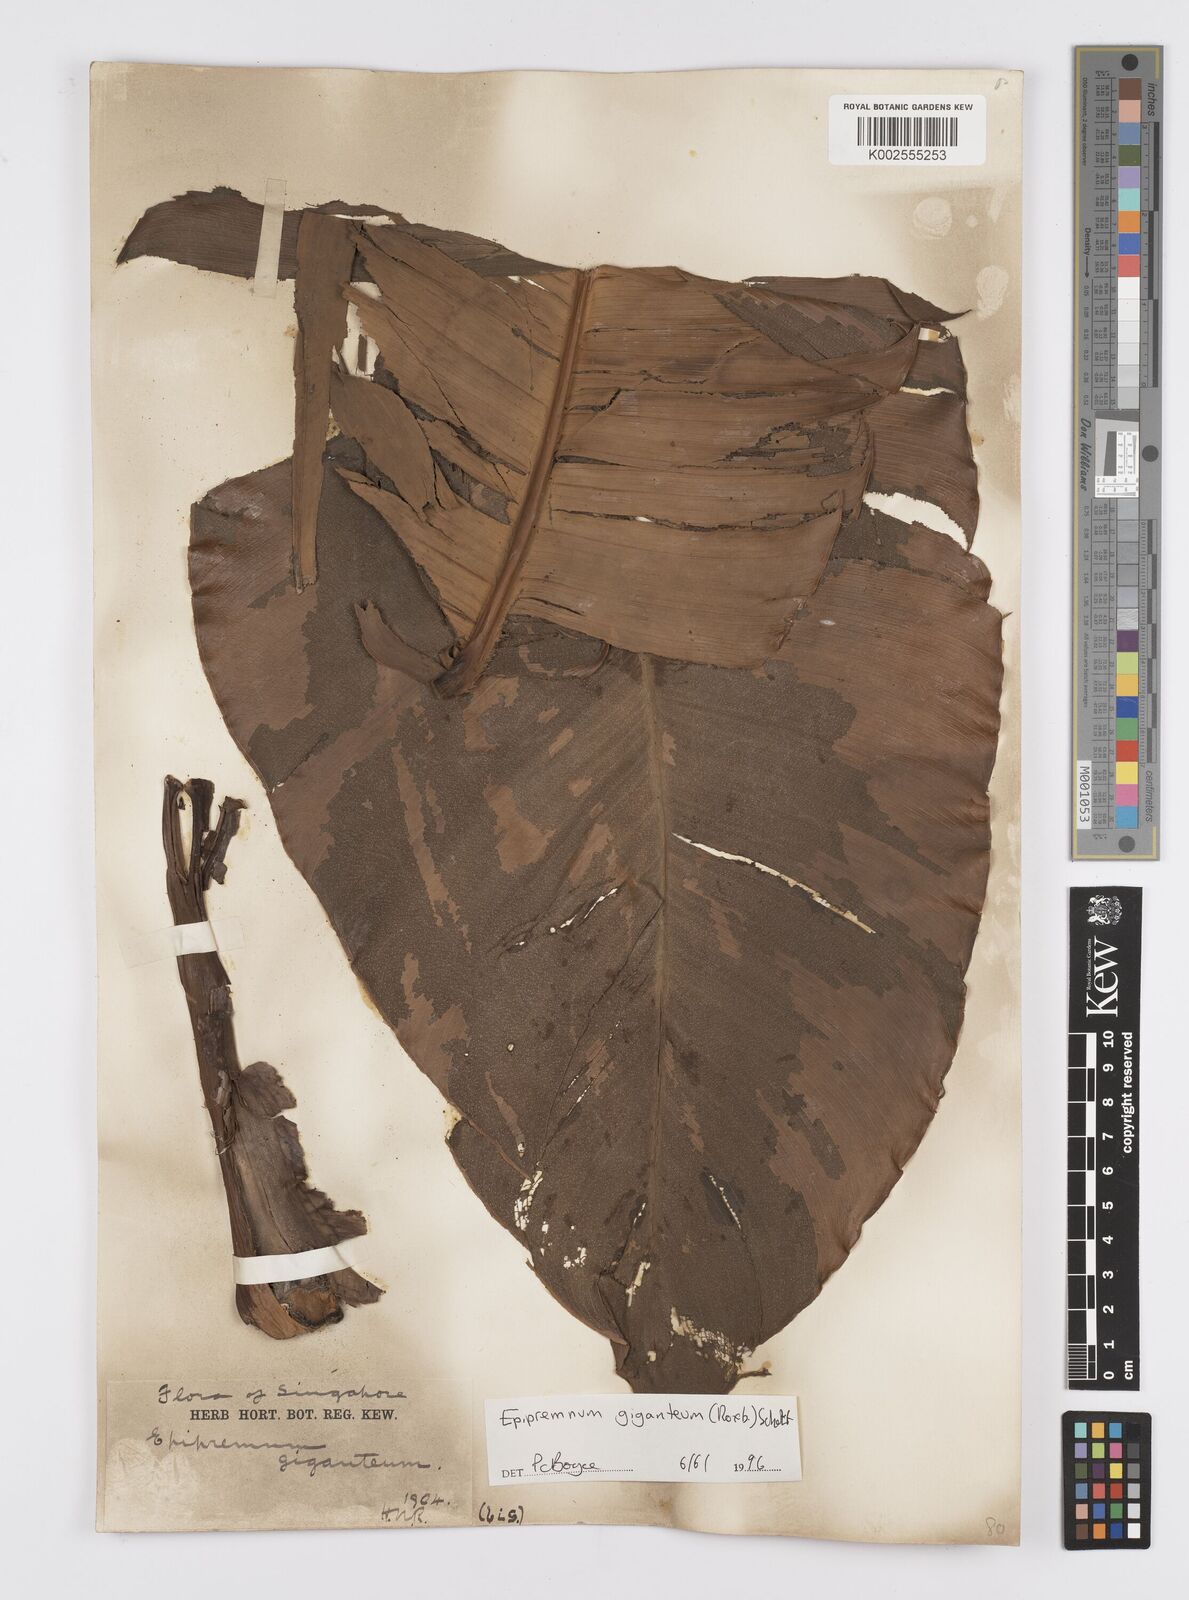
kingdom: Plantae
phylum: Tracheophyta
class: Liliopsida
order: Alismatales
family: Araceae
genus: Epipremnum
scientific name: Epipremnum giganteum
